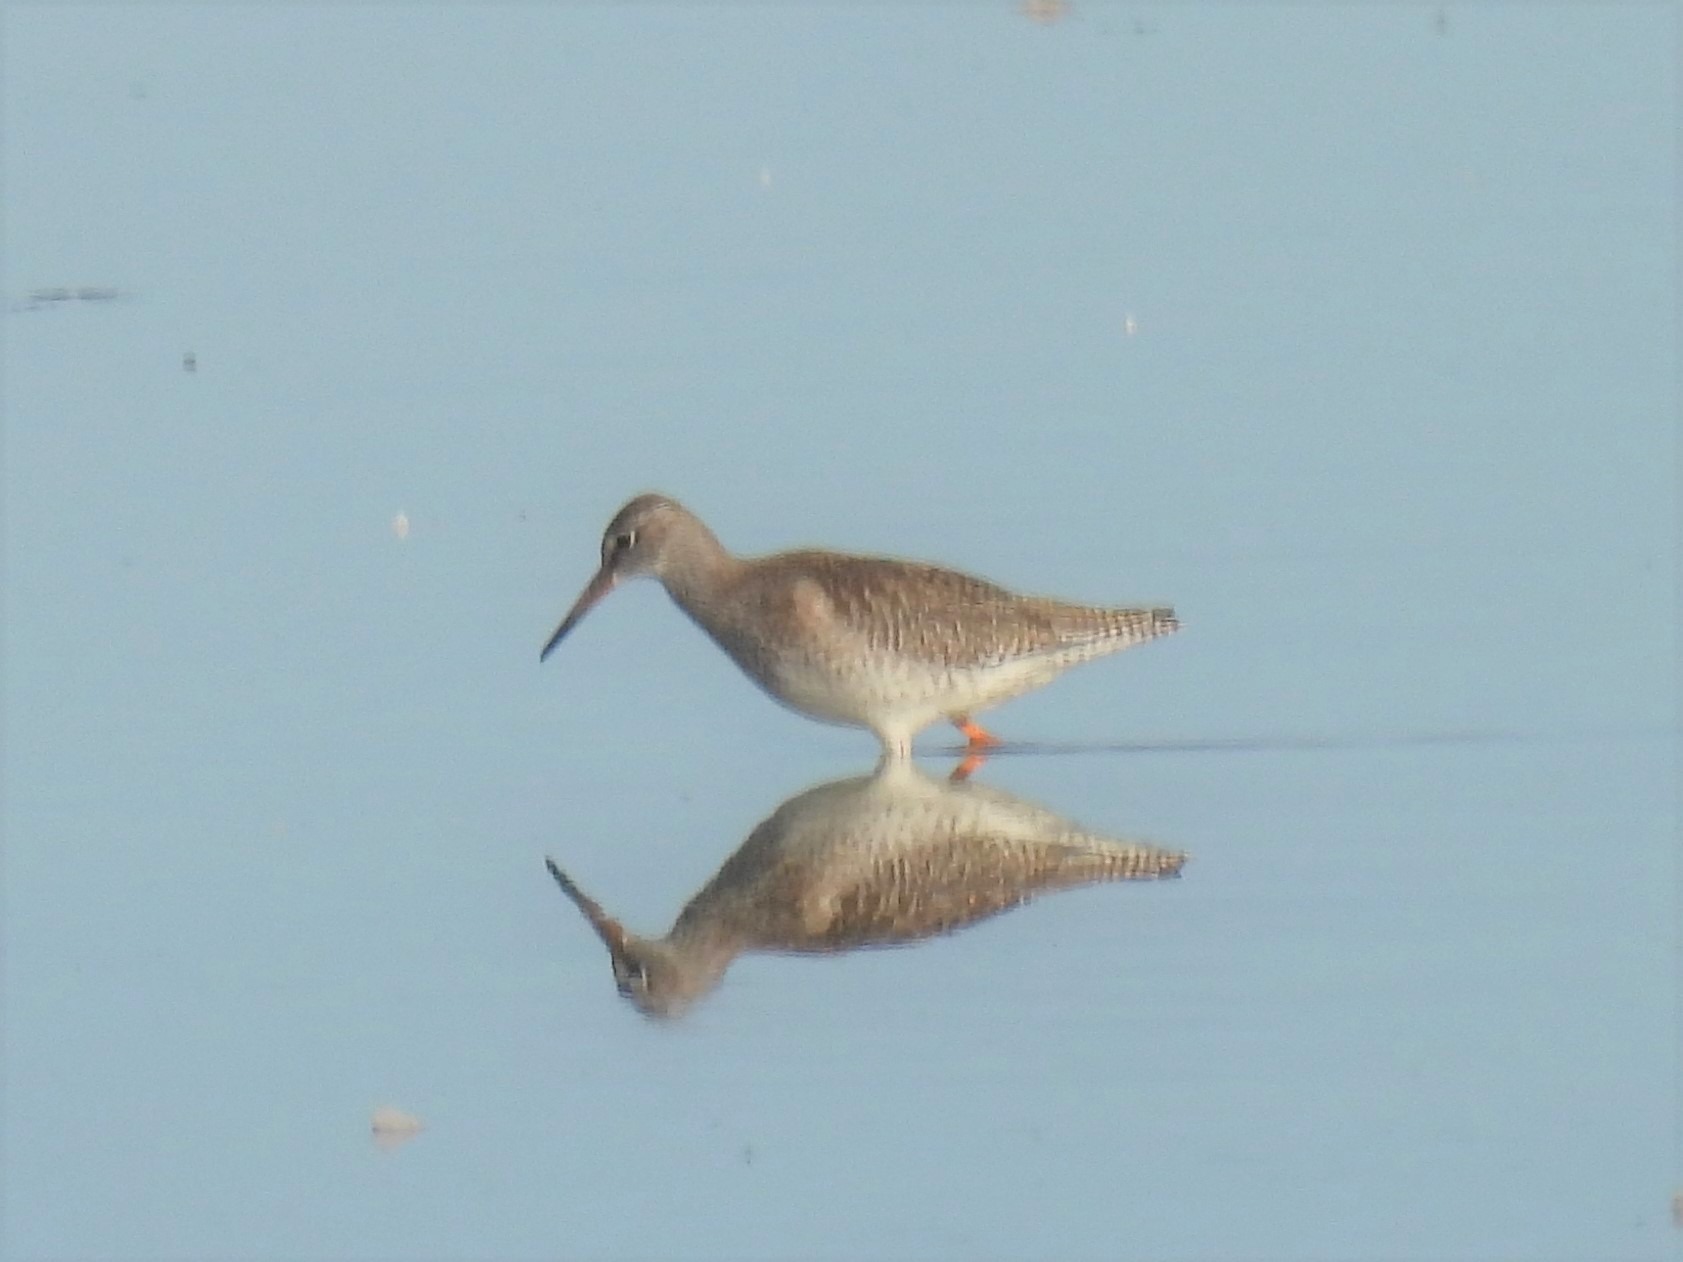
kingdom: Animalia
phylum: Chordata
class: Aves
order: Charadriiformes
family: Scolopacidae
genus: Tringa
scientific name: Tringa totanus
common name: Rødben
